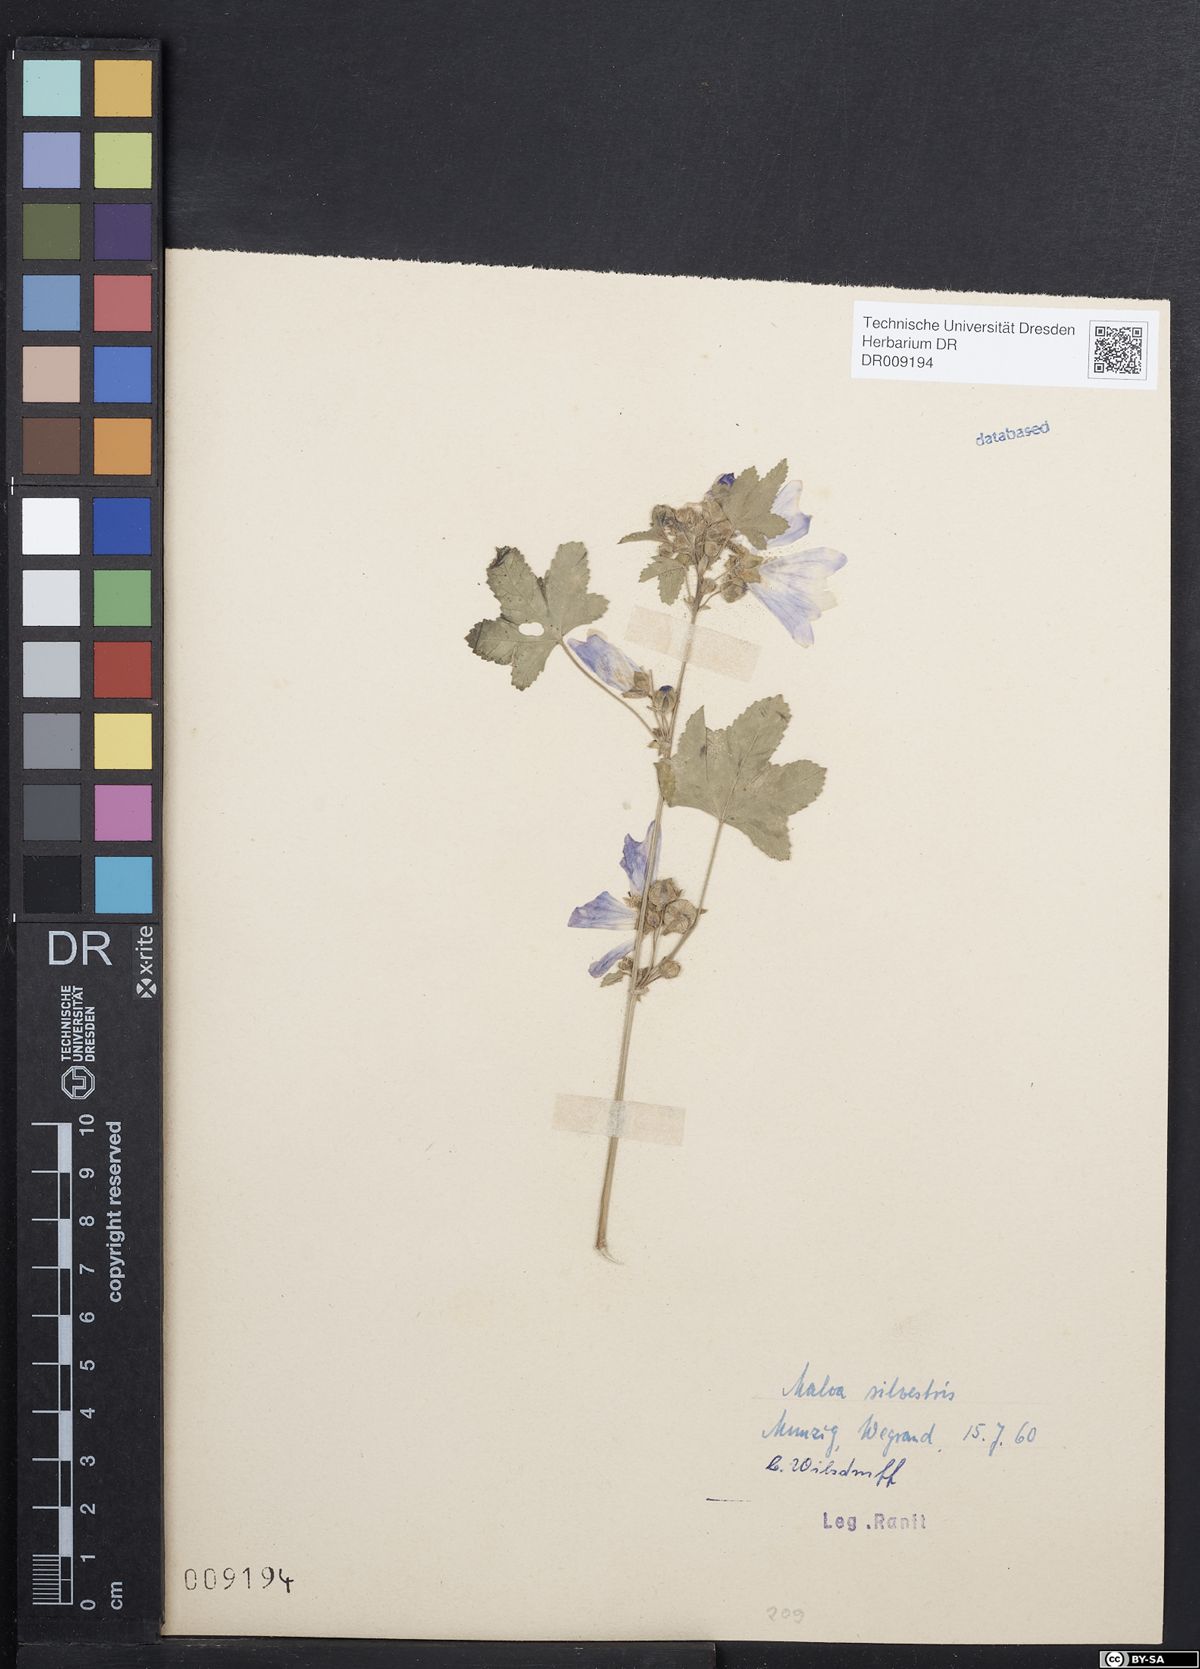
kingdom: Plantae
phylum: Tracheophyta
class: Magnoliopsida
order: Malvales
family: Malvaceae
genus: Malva
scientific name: Malva sylvestris
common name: Common mallow
